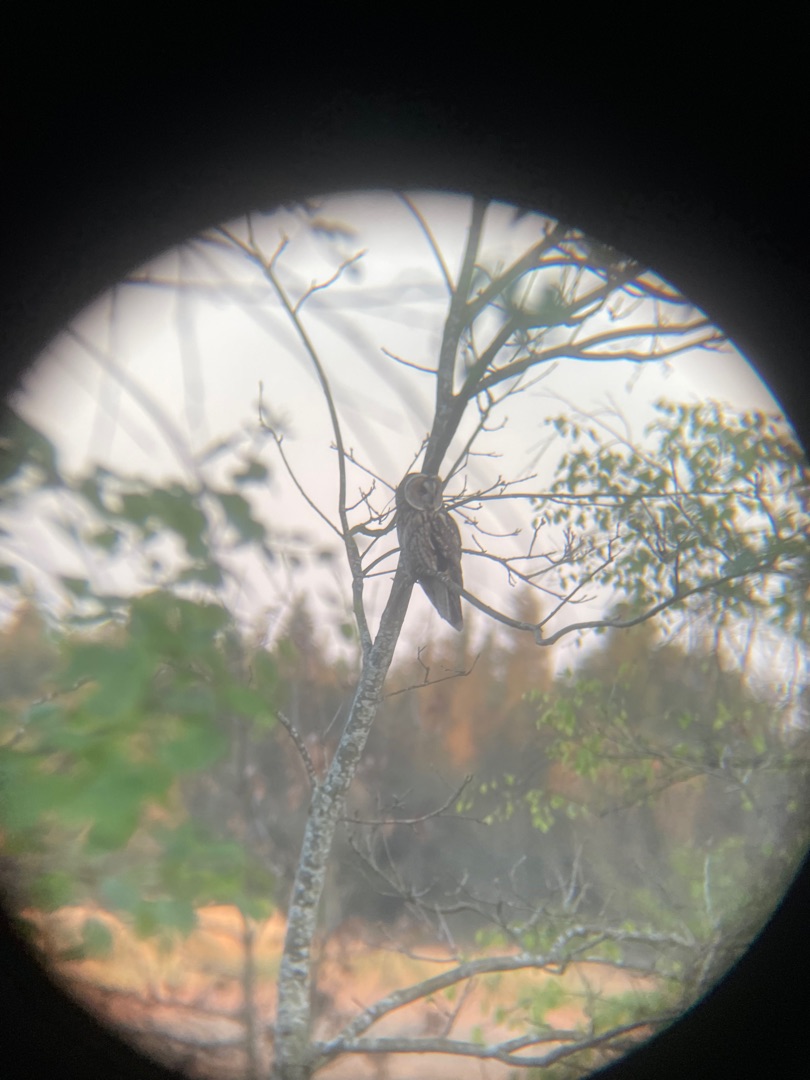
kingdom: Animalia
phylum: Chordata
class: Aves
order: Strigiformes
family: Strigidae
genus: Asio
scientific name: Asio otus
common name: Skovhornugle
